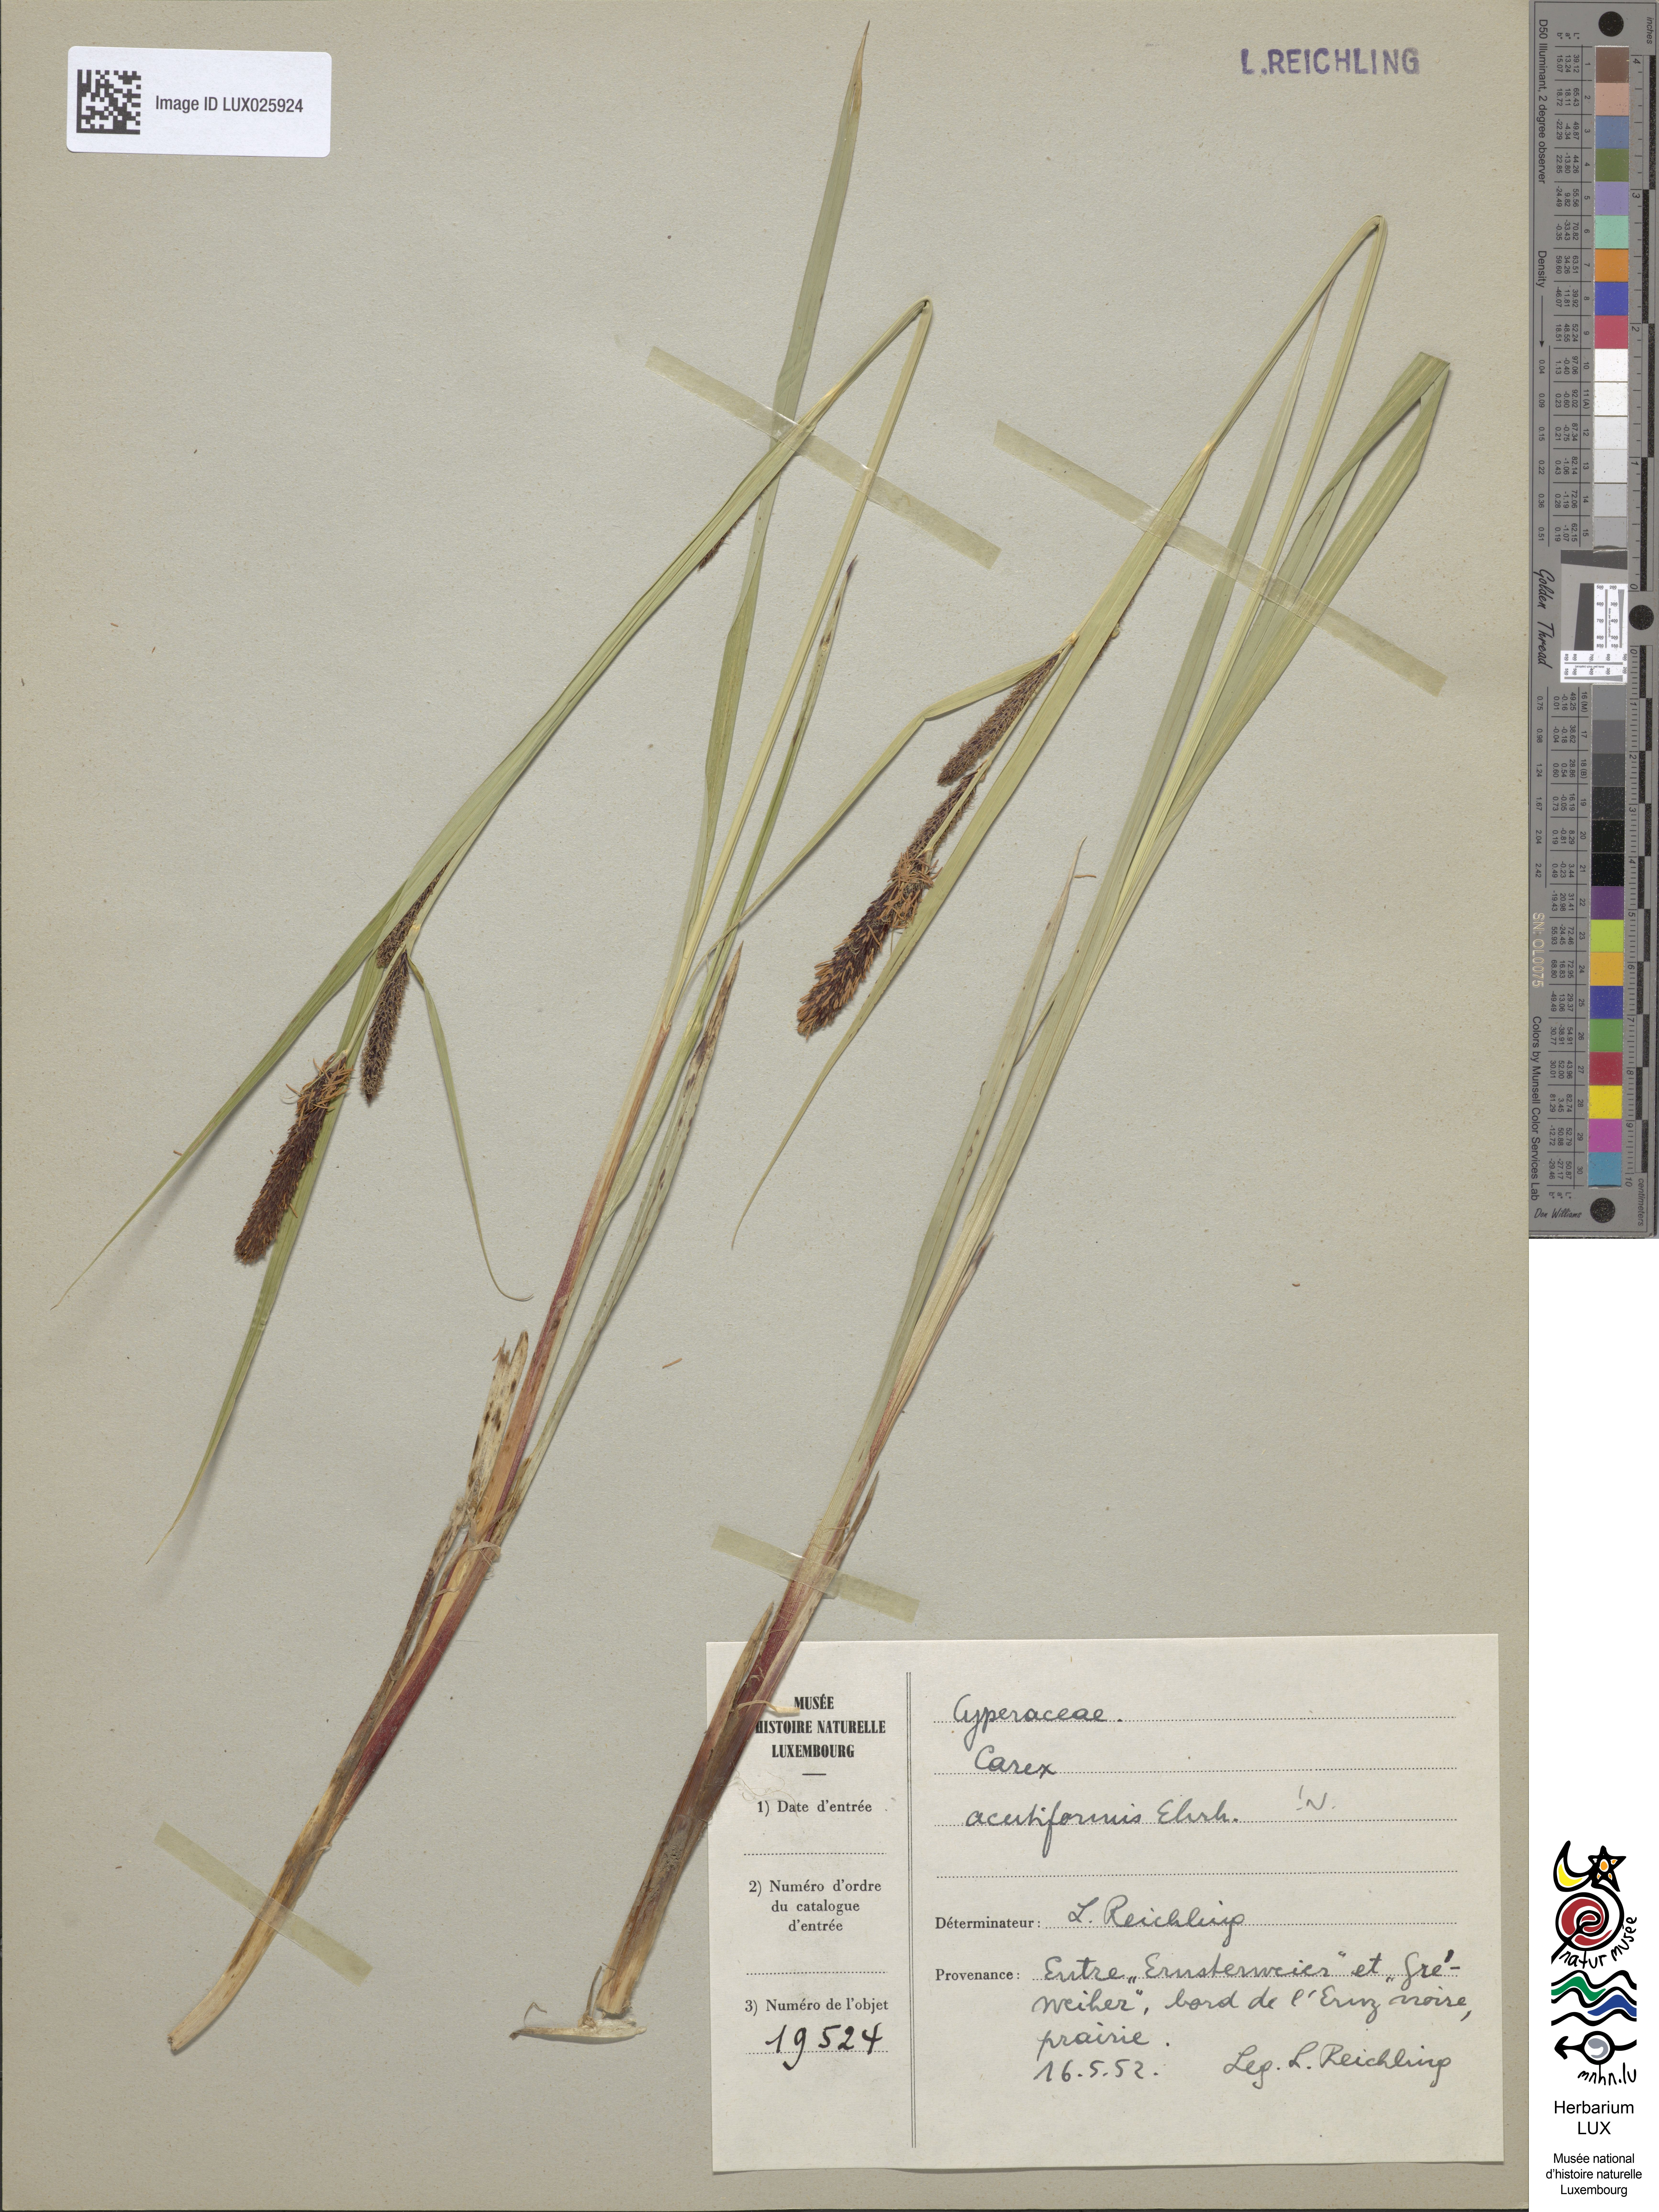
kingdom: Plantae
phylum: Tracheophyta
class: Liliopsida
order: Poales
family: Cyperaceae
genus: Carex
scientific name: Carex acutiformis
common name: Lesser pond-sedge
